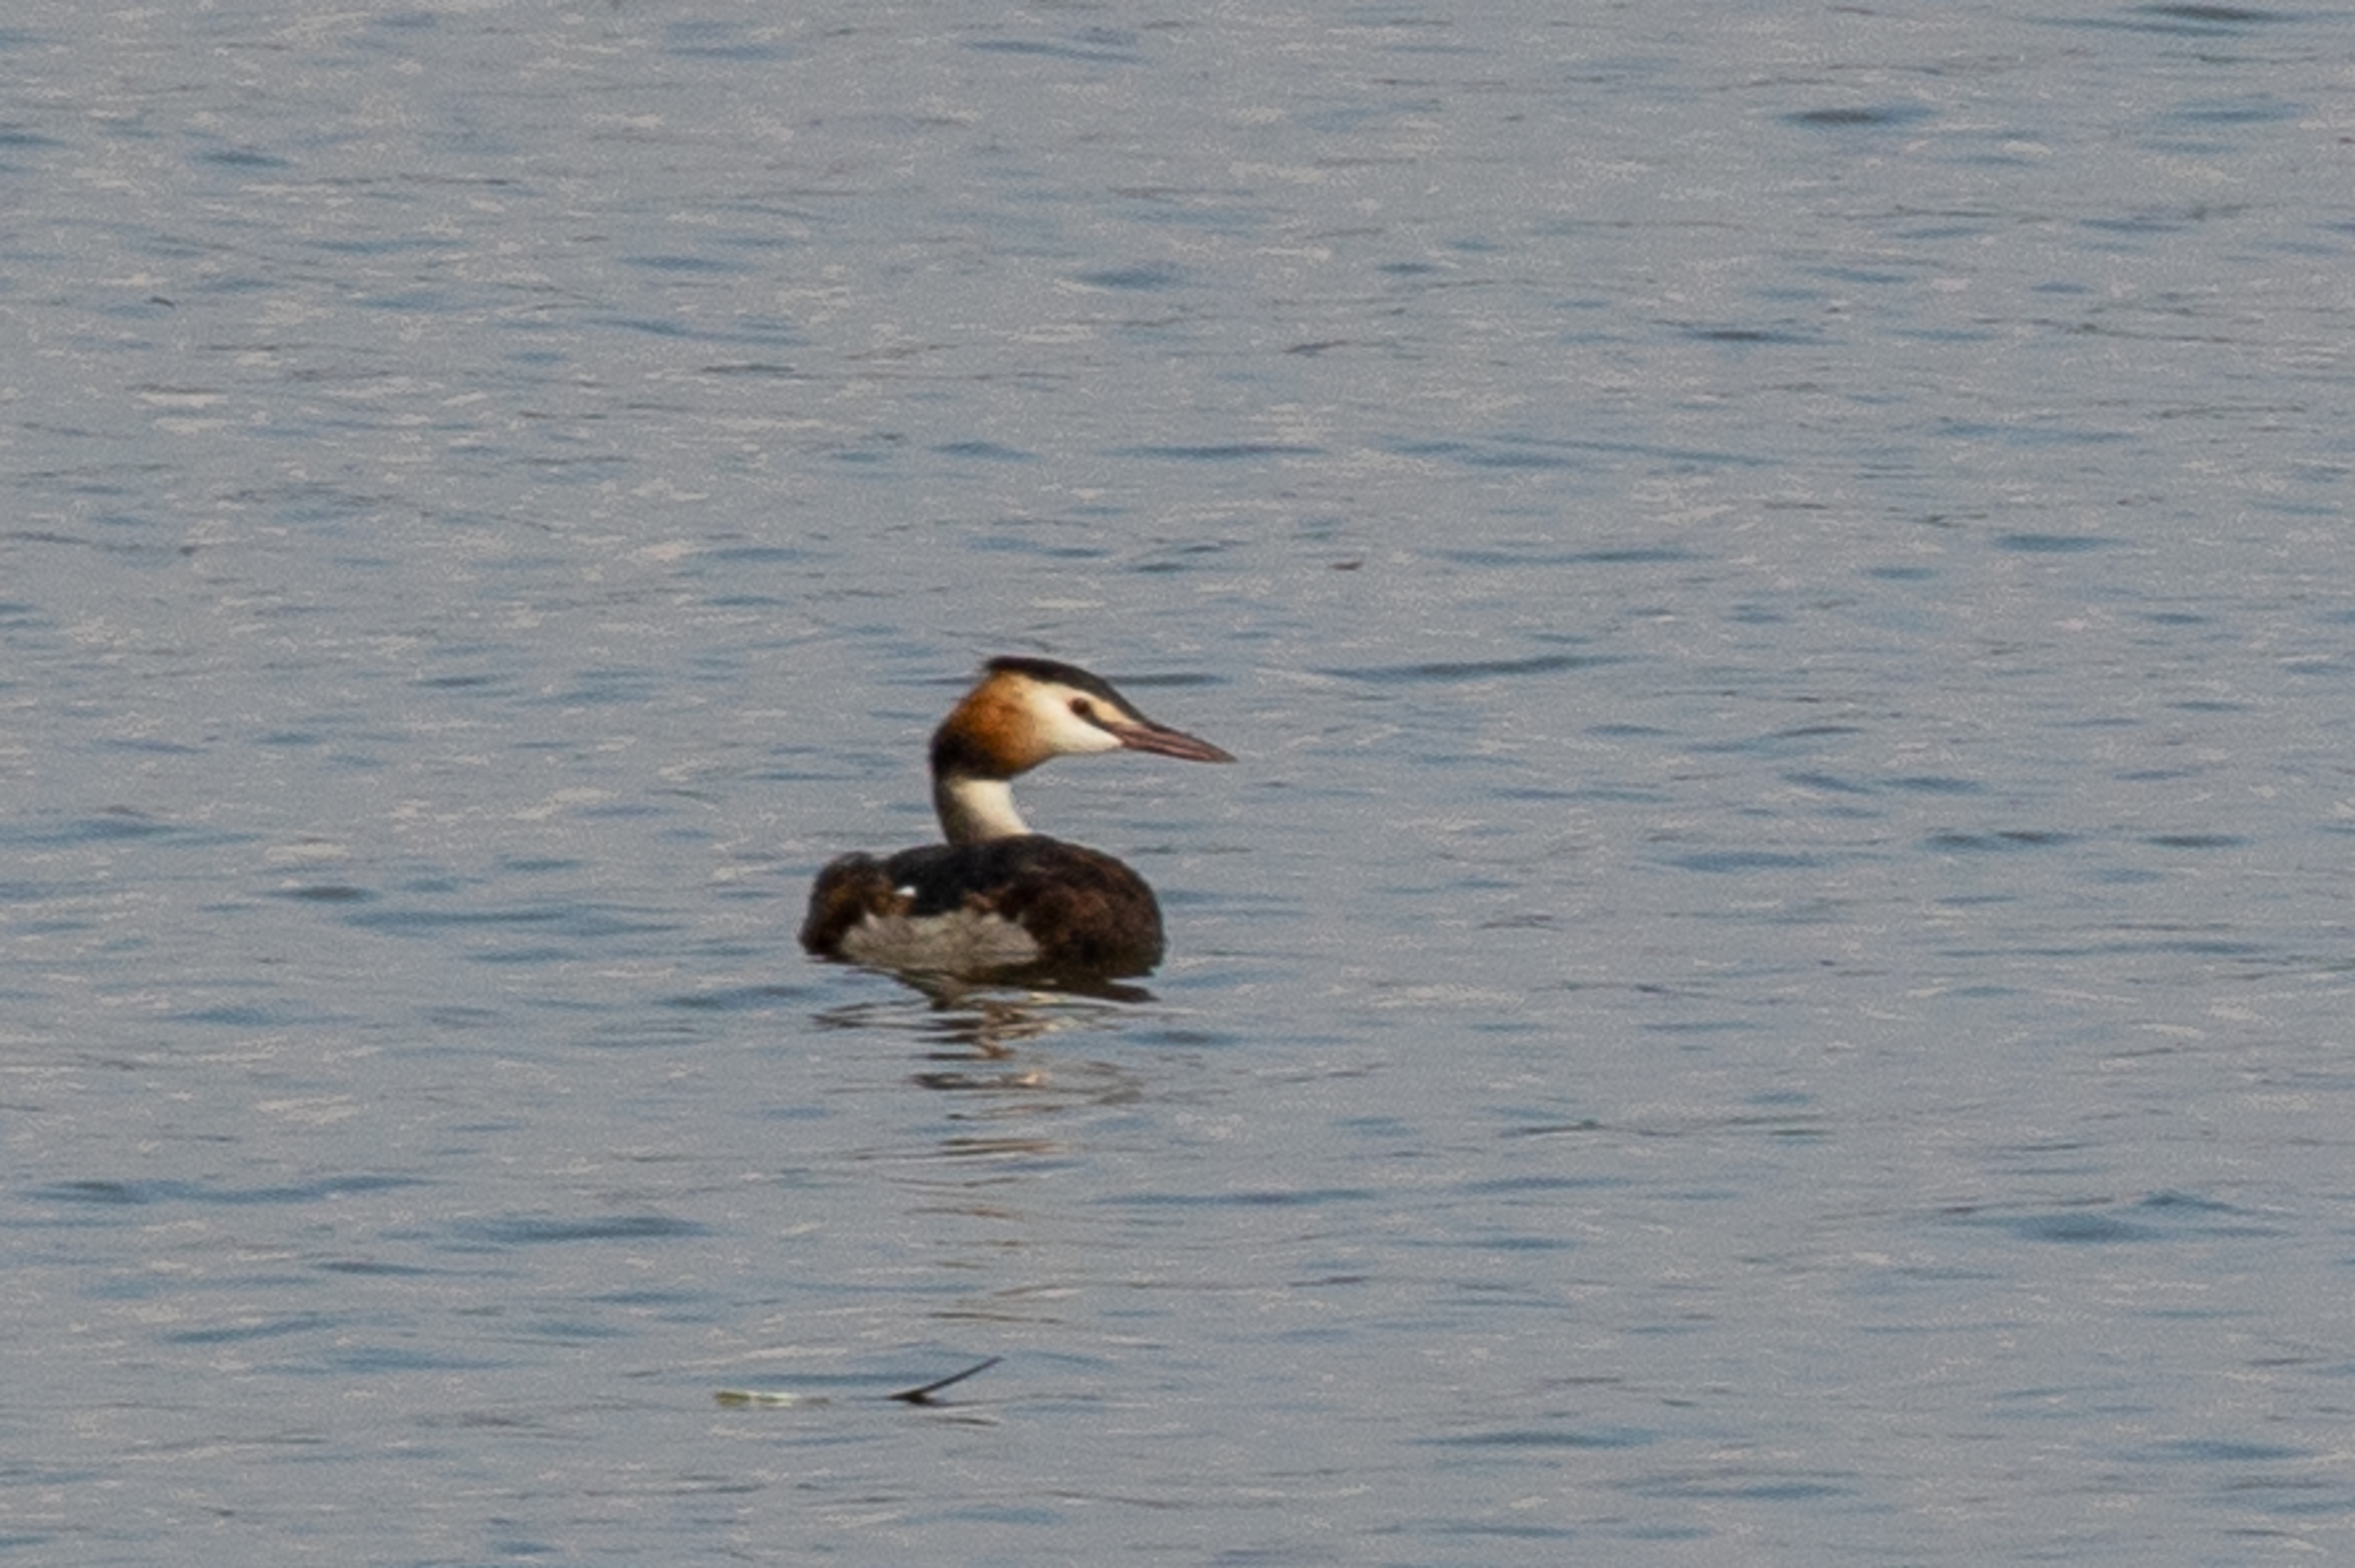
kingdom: Animalia
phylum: Chordata
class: Aves
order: Podicipediformes
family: Podicipedidae
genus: Podiceps
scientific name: Podiceps cristatus
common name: Toppet lappedykker
